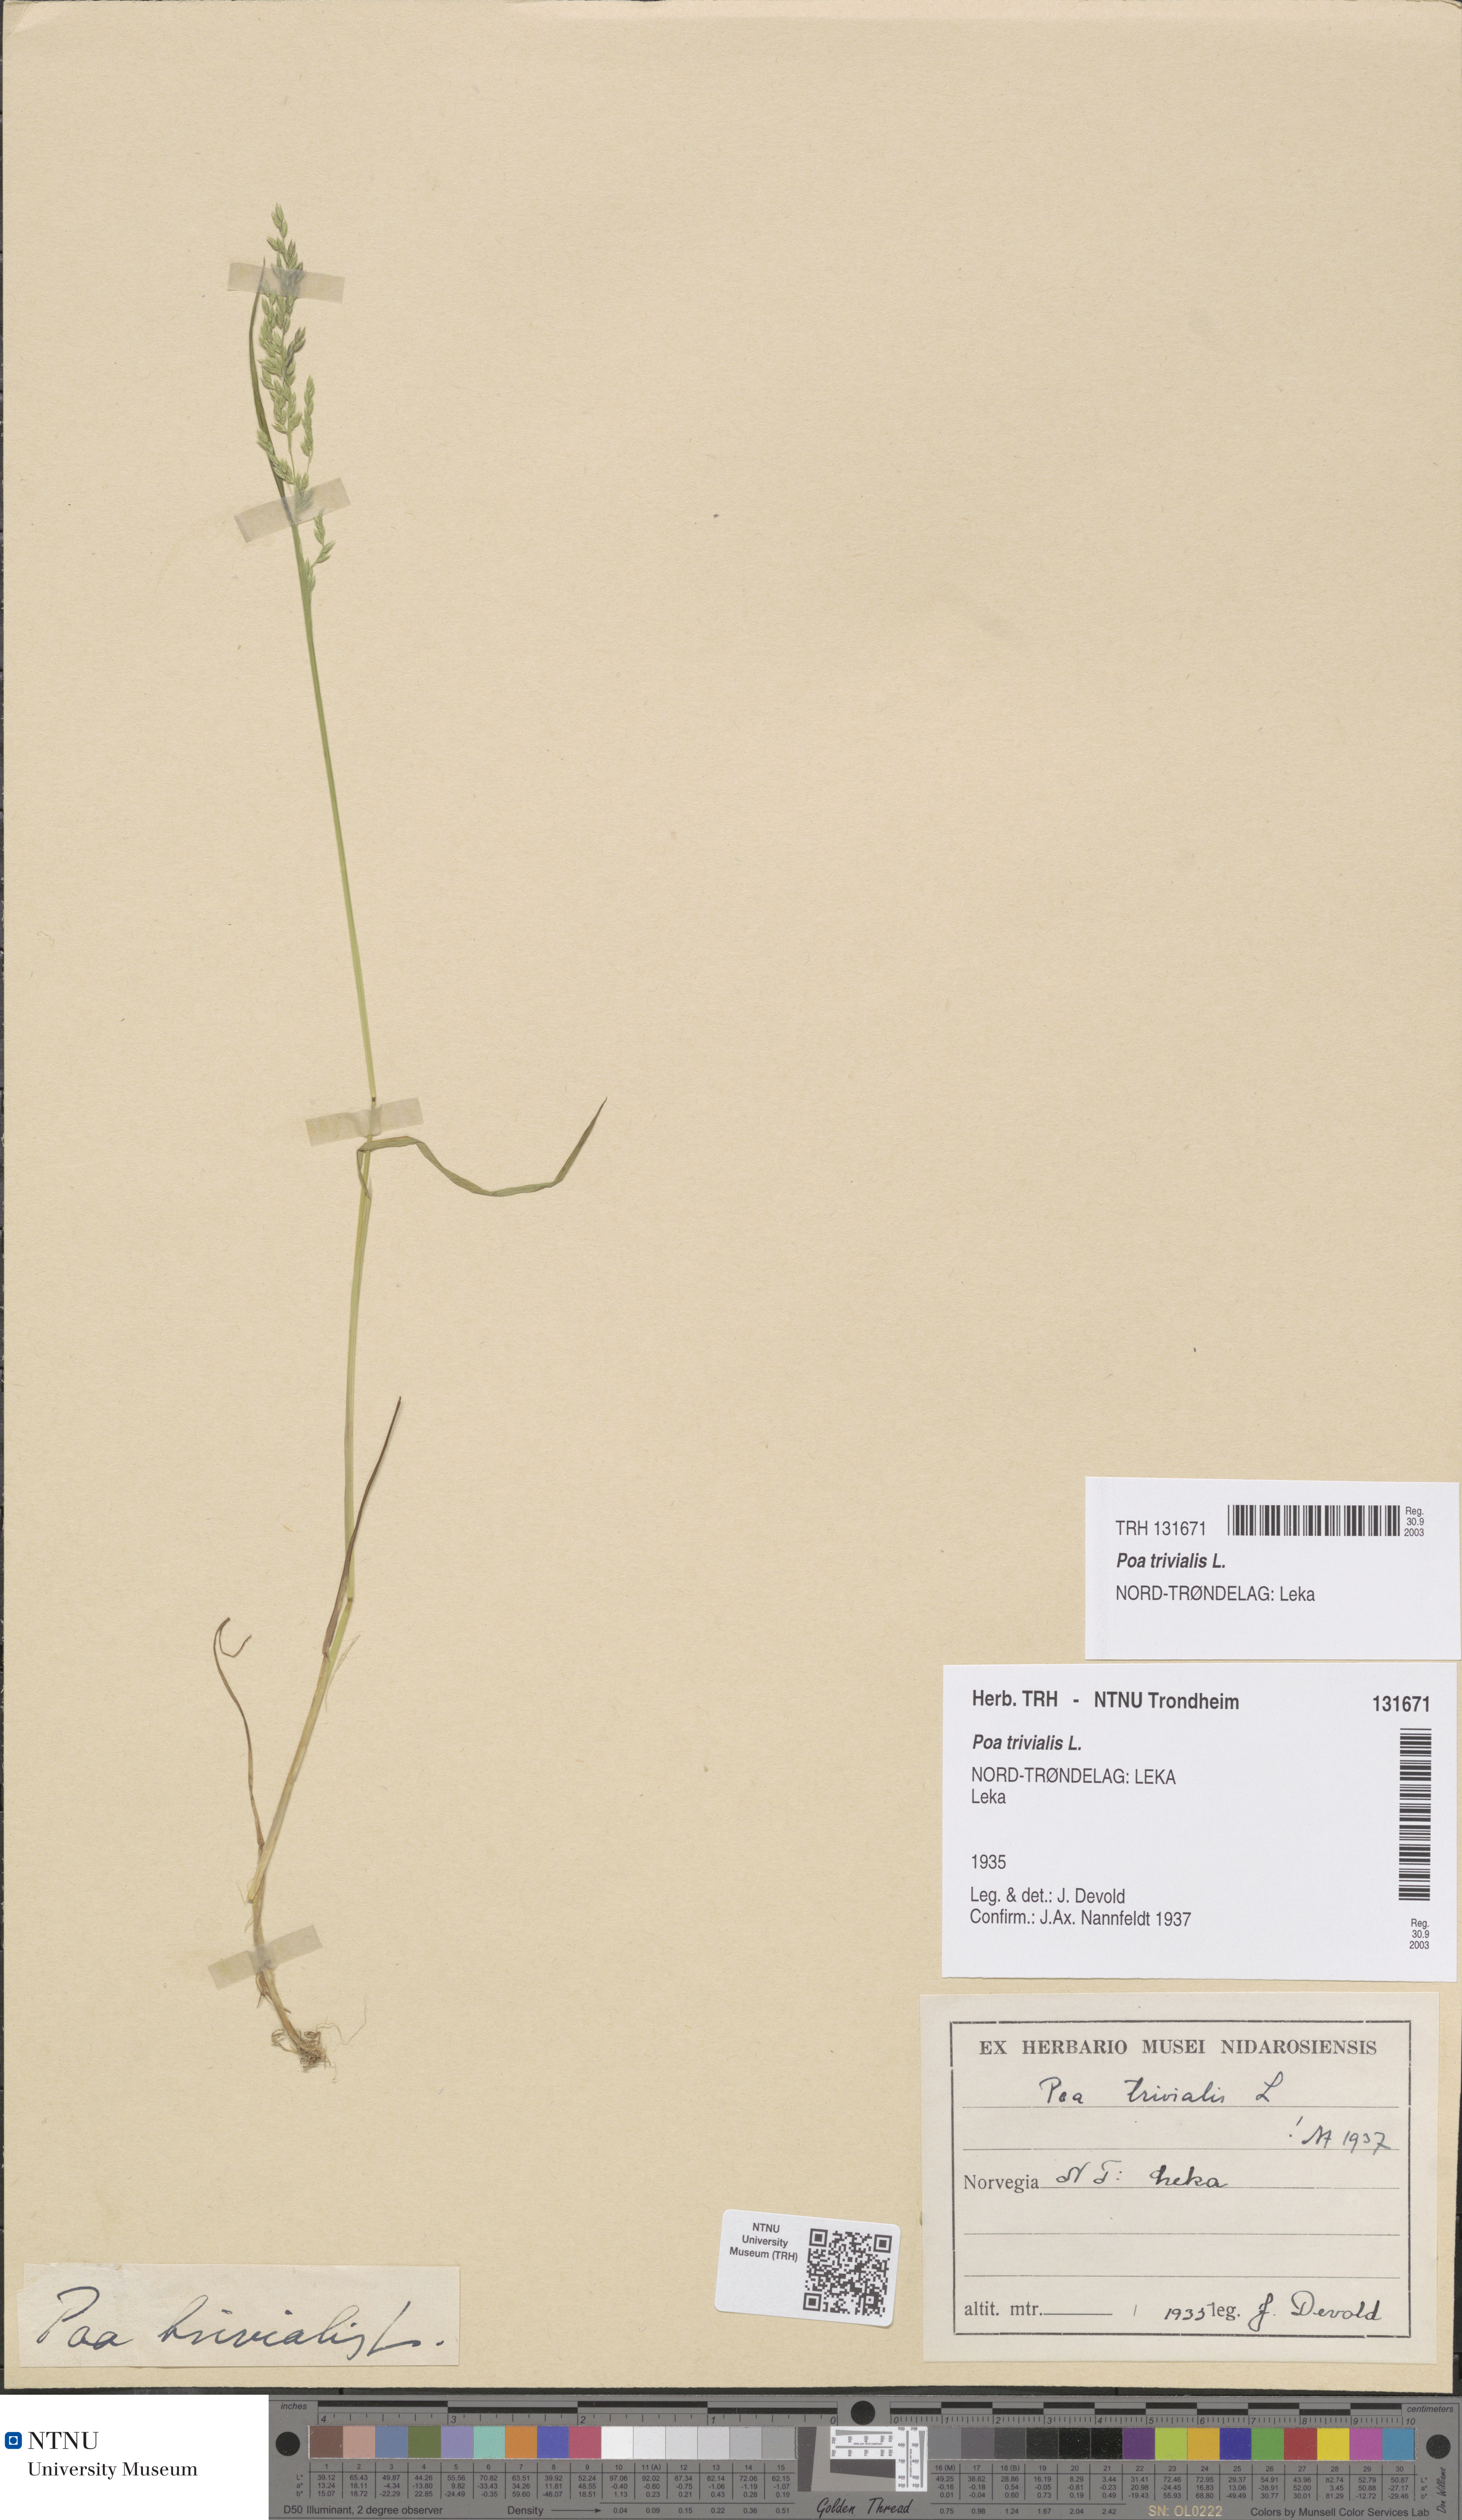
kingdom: Plantae
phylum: Tracheophyta
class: Liliopsida
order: Poales
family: Poaceae
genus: Poa
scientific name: Poa trivialis
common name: Rough bluegrass
